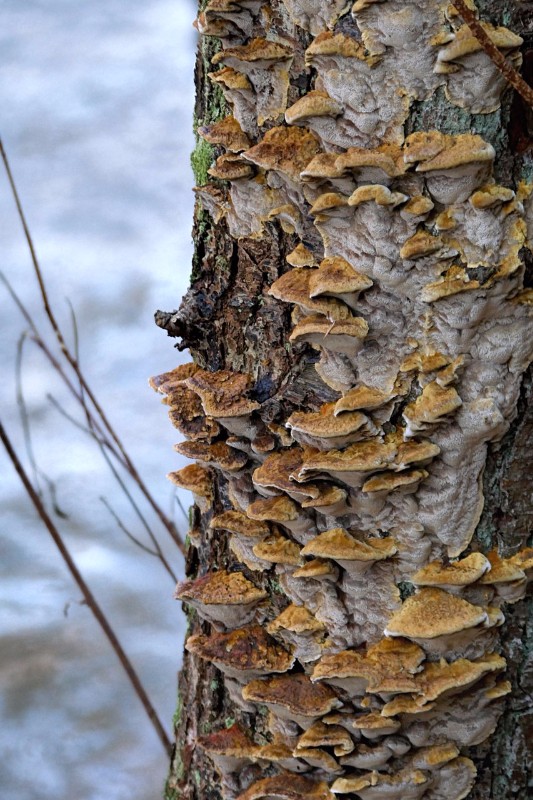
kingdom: Fungi
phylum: Basidiomycota
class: Agaricomycetes
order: Hymenochaetales
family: Hymenochaetaceae
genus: Xanthoporia
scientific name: Xanthoporia radiata
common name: elle-spejlporesvamp
